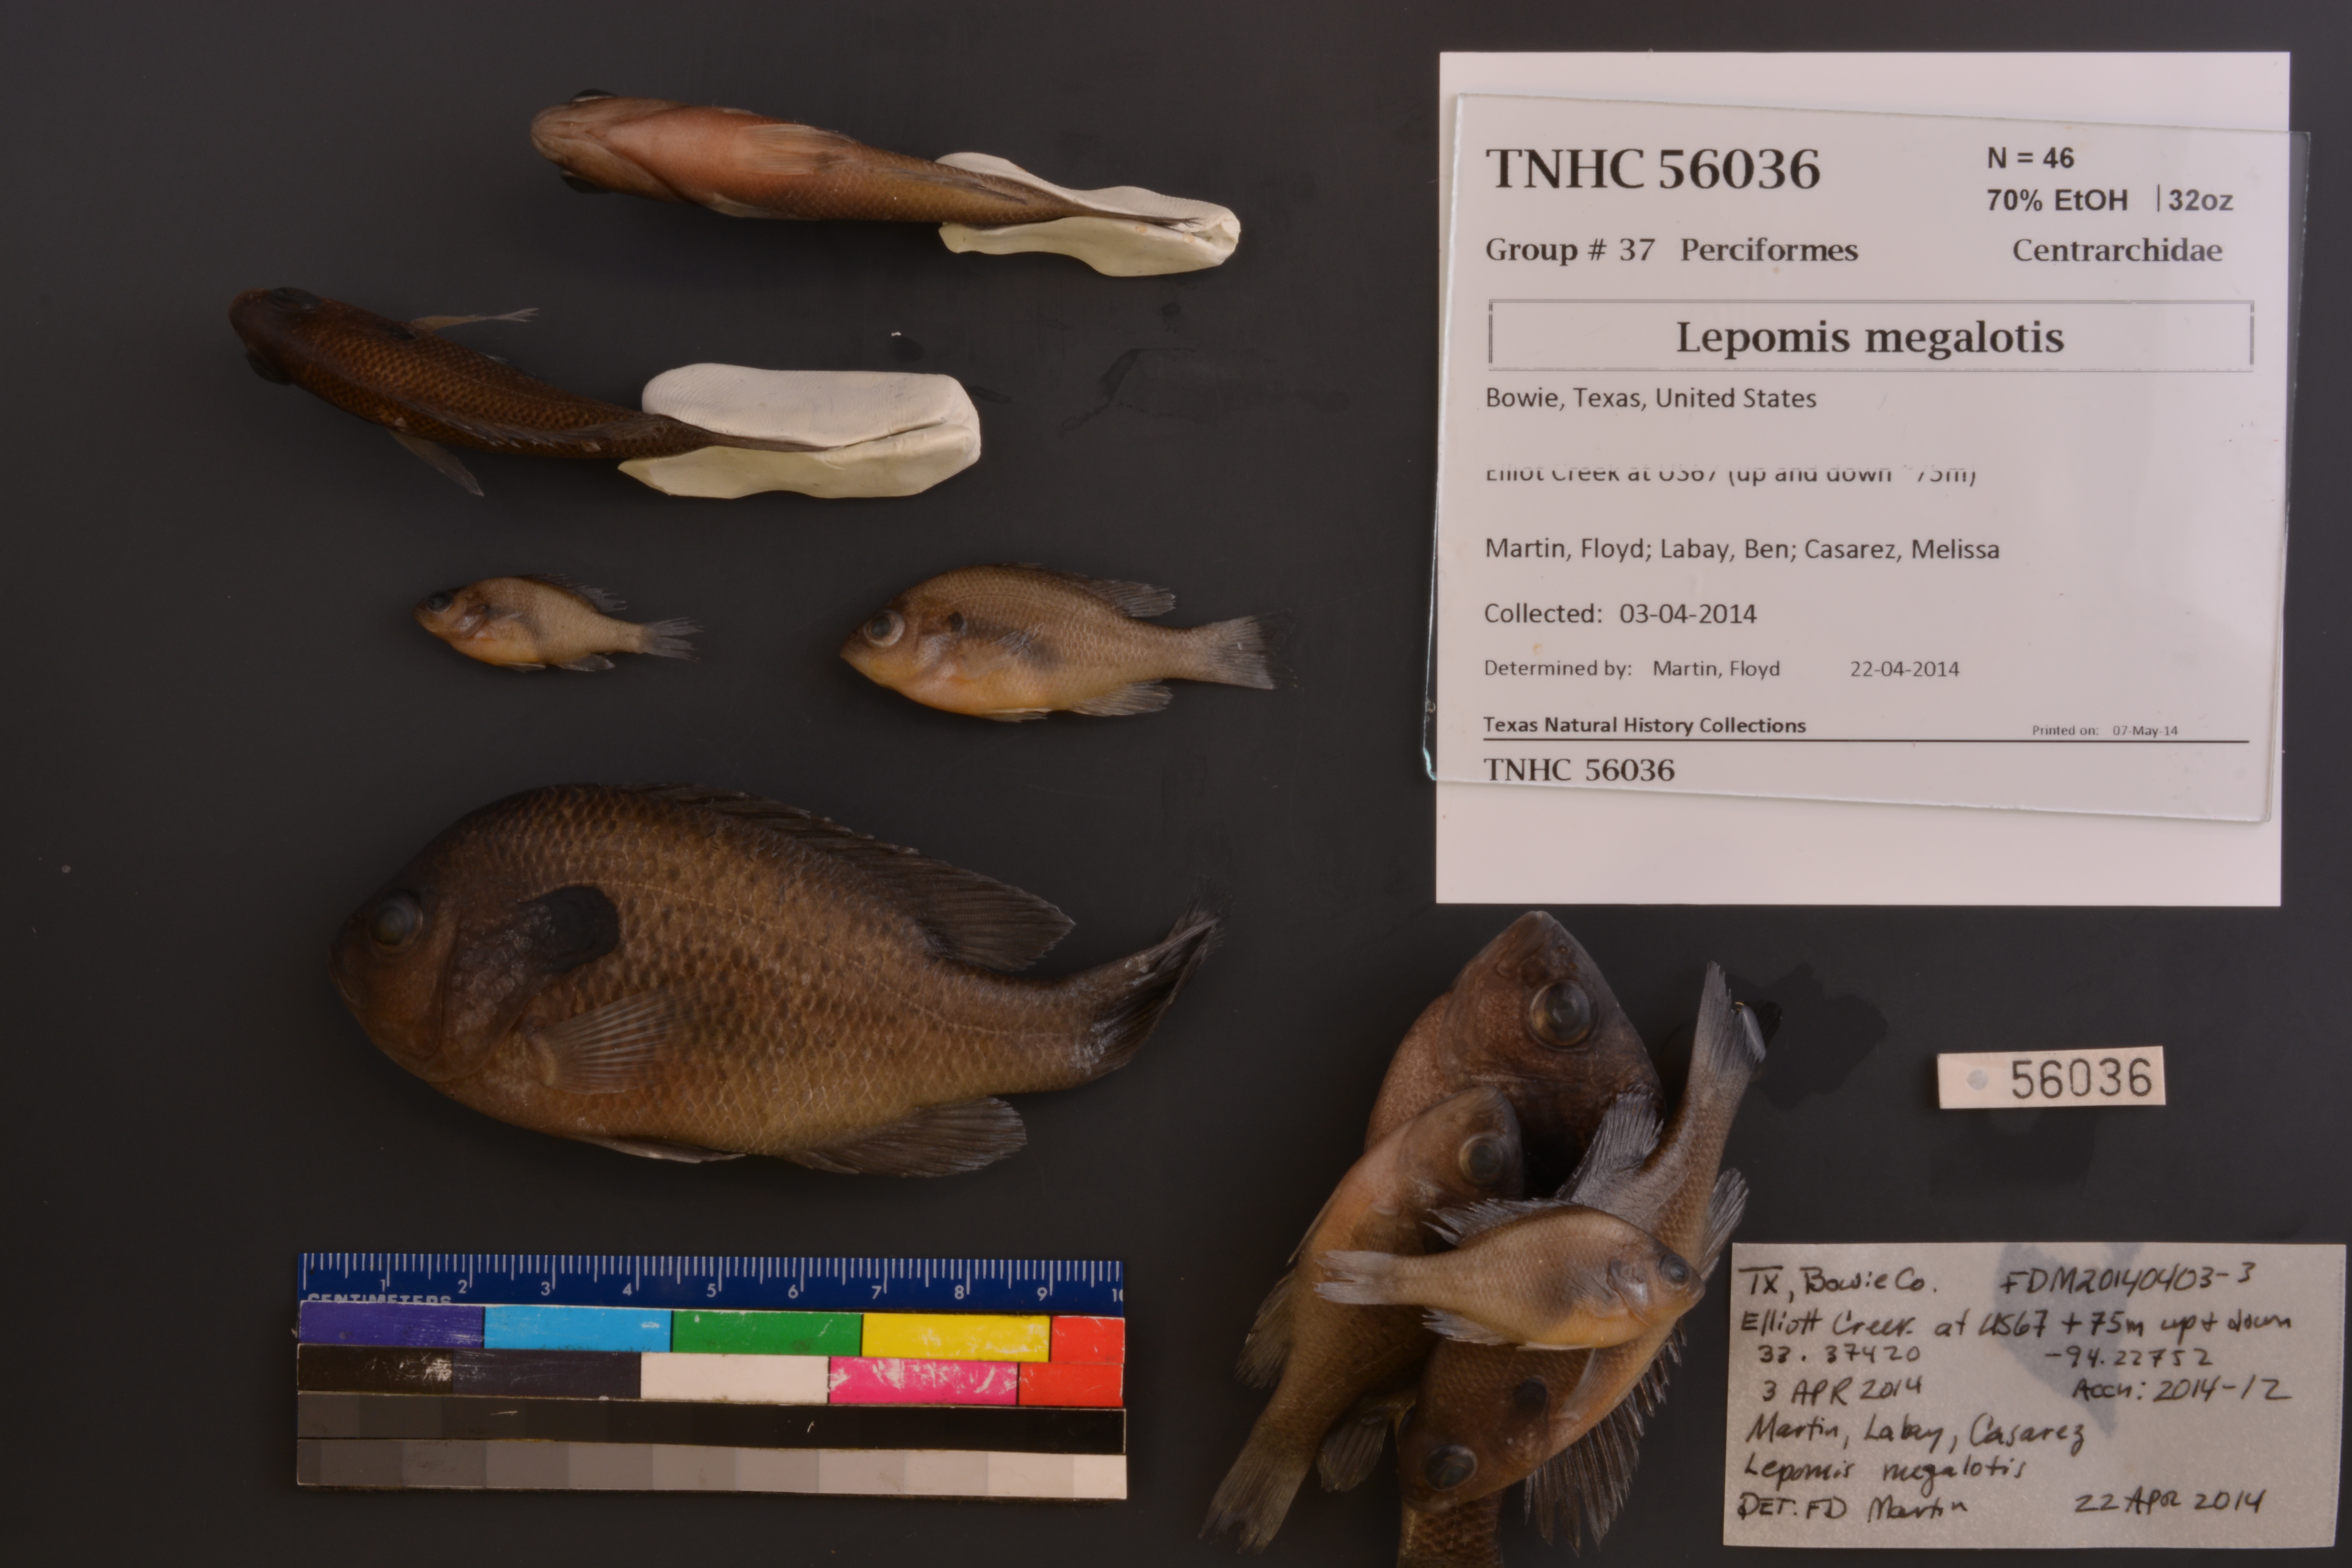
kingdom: Animalia
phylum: Chordata
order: Perciformes
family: Centrarchidae
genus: Lepomis
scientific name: Lepomis megalotis
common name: Longear sunfish
